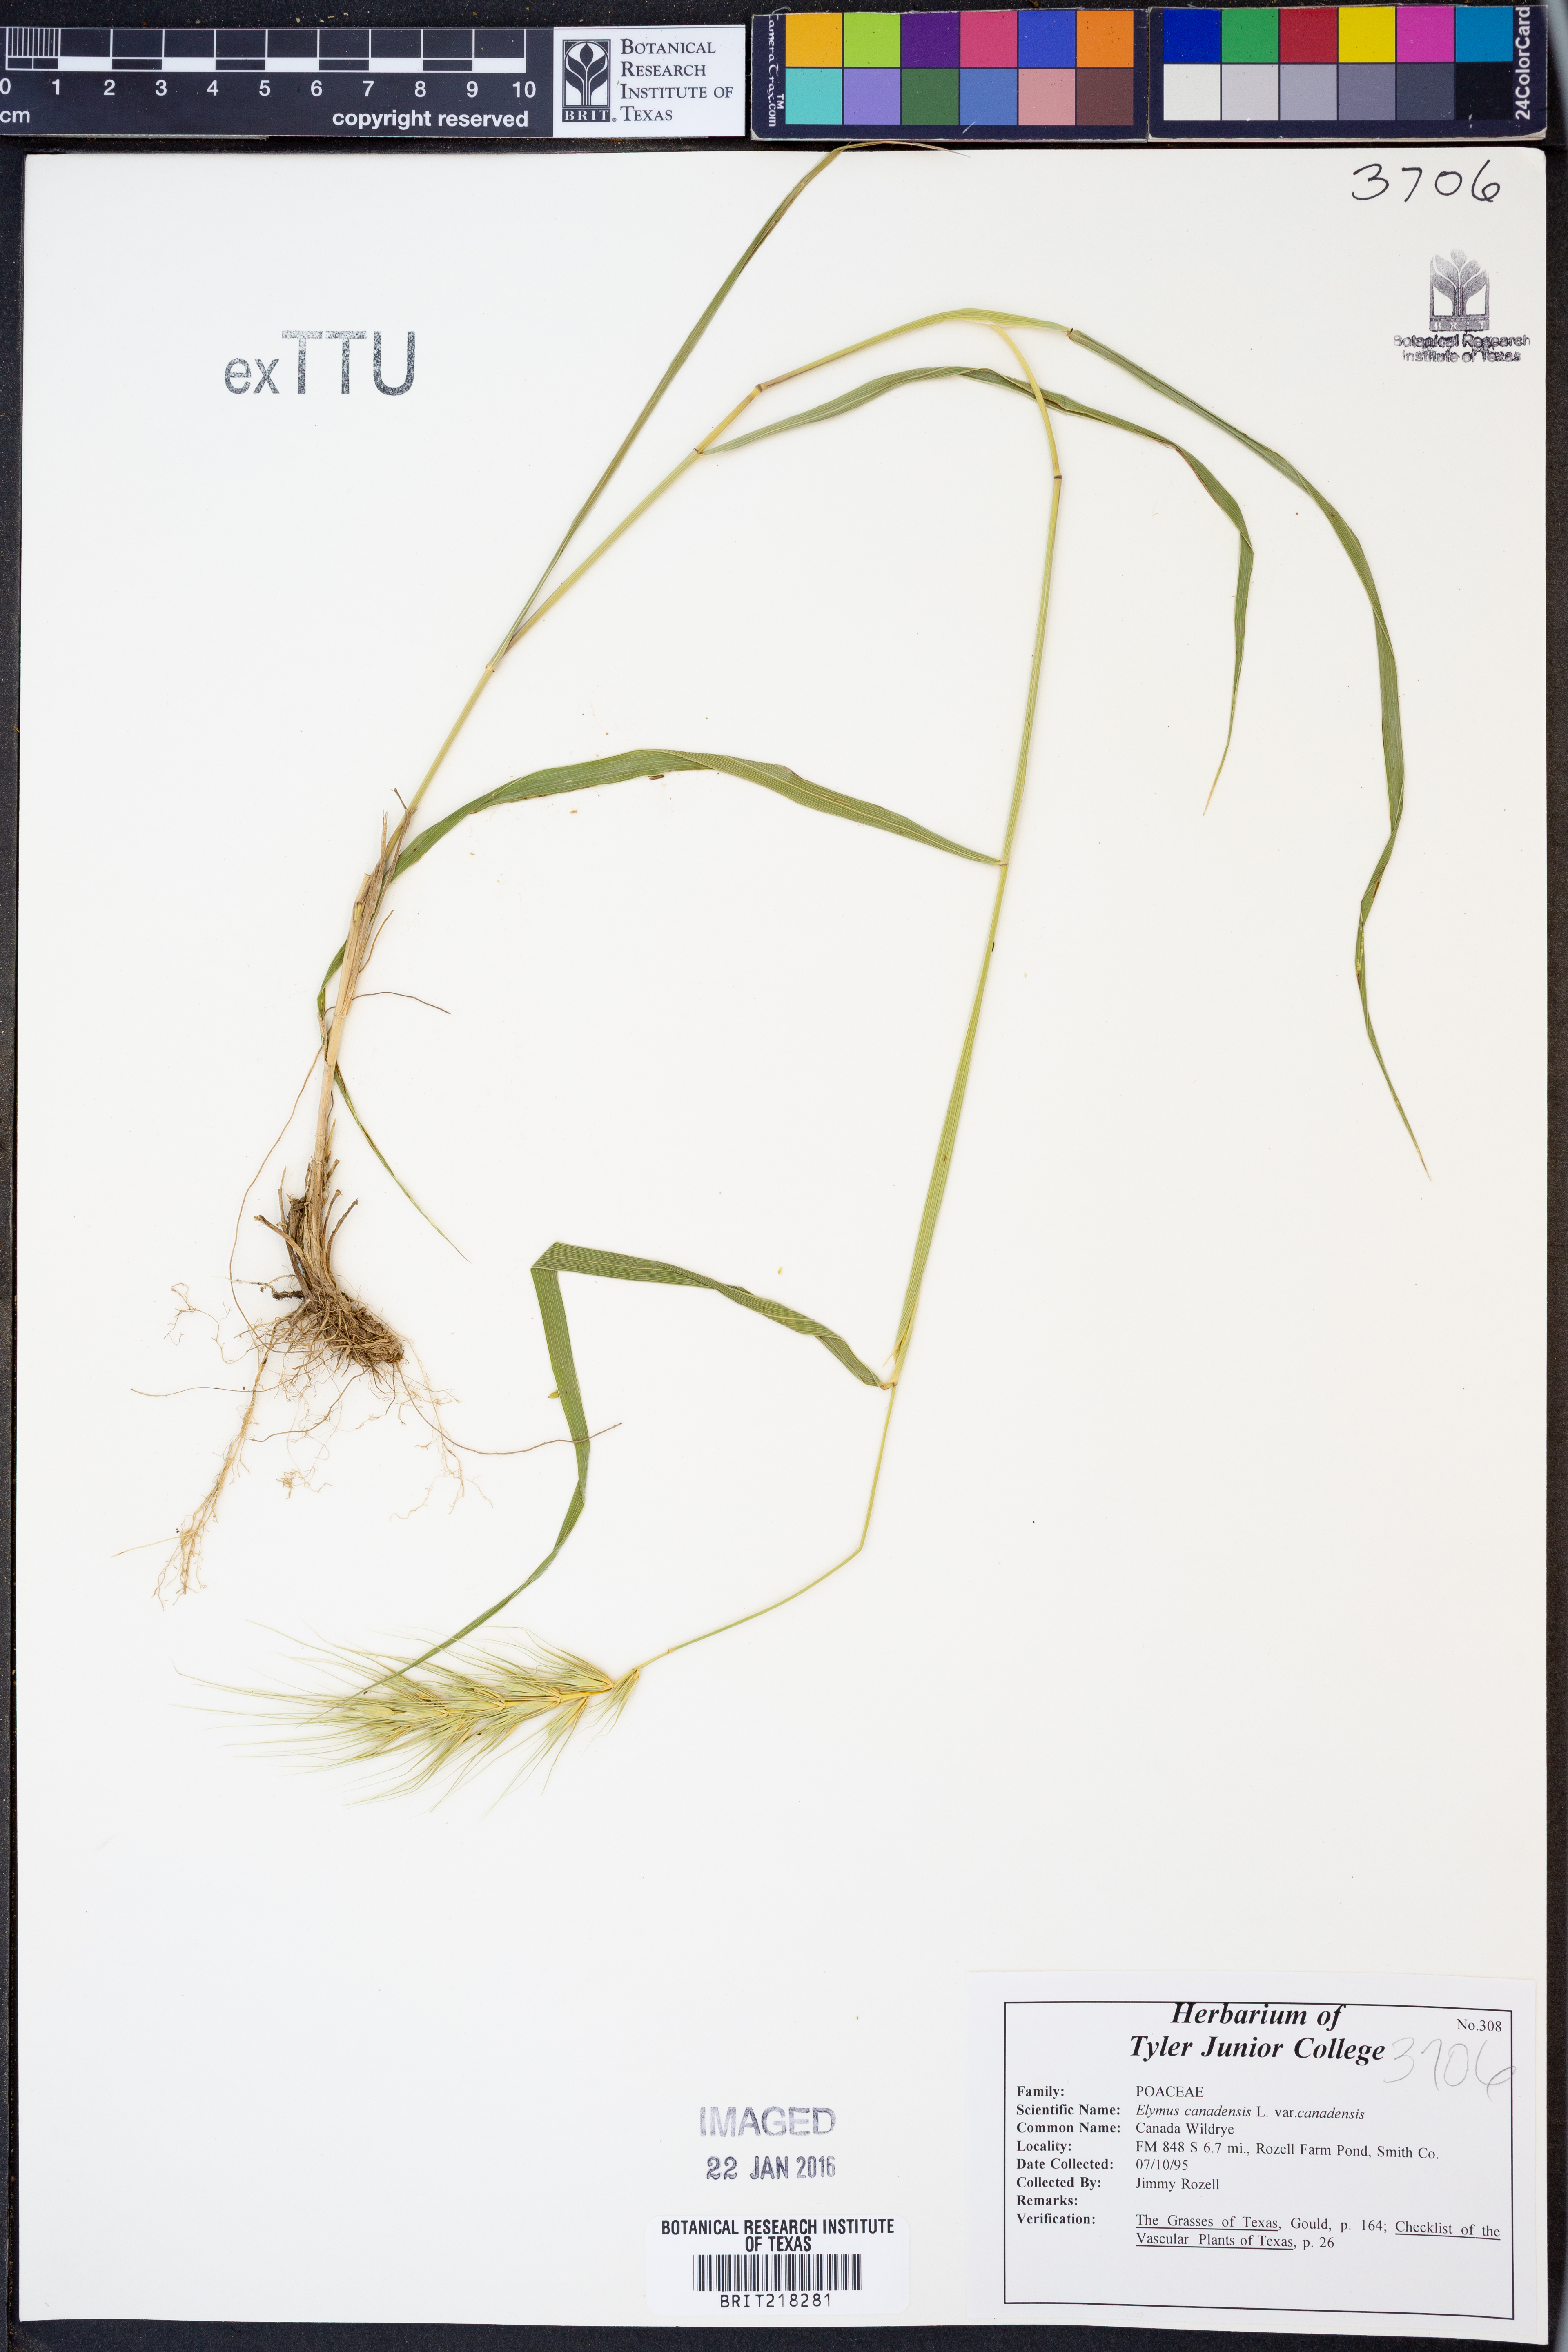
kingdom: Plantae
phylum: Tracheophyta
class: Liliopsida
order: Poales
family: Poaceae
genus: Elymus
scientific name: Elymus canadensis
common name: Canada wild rye
